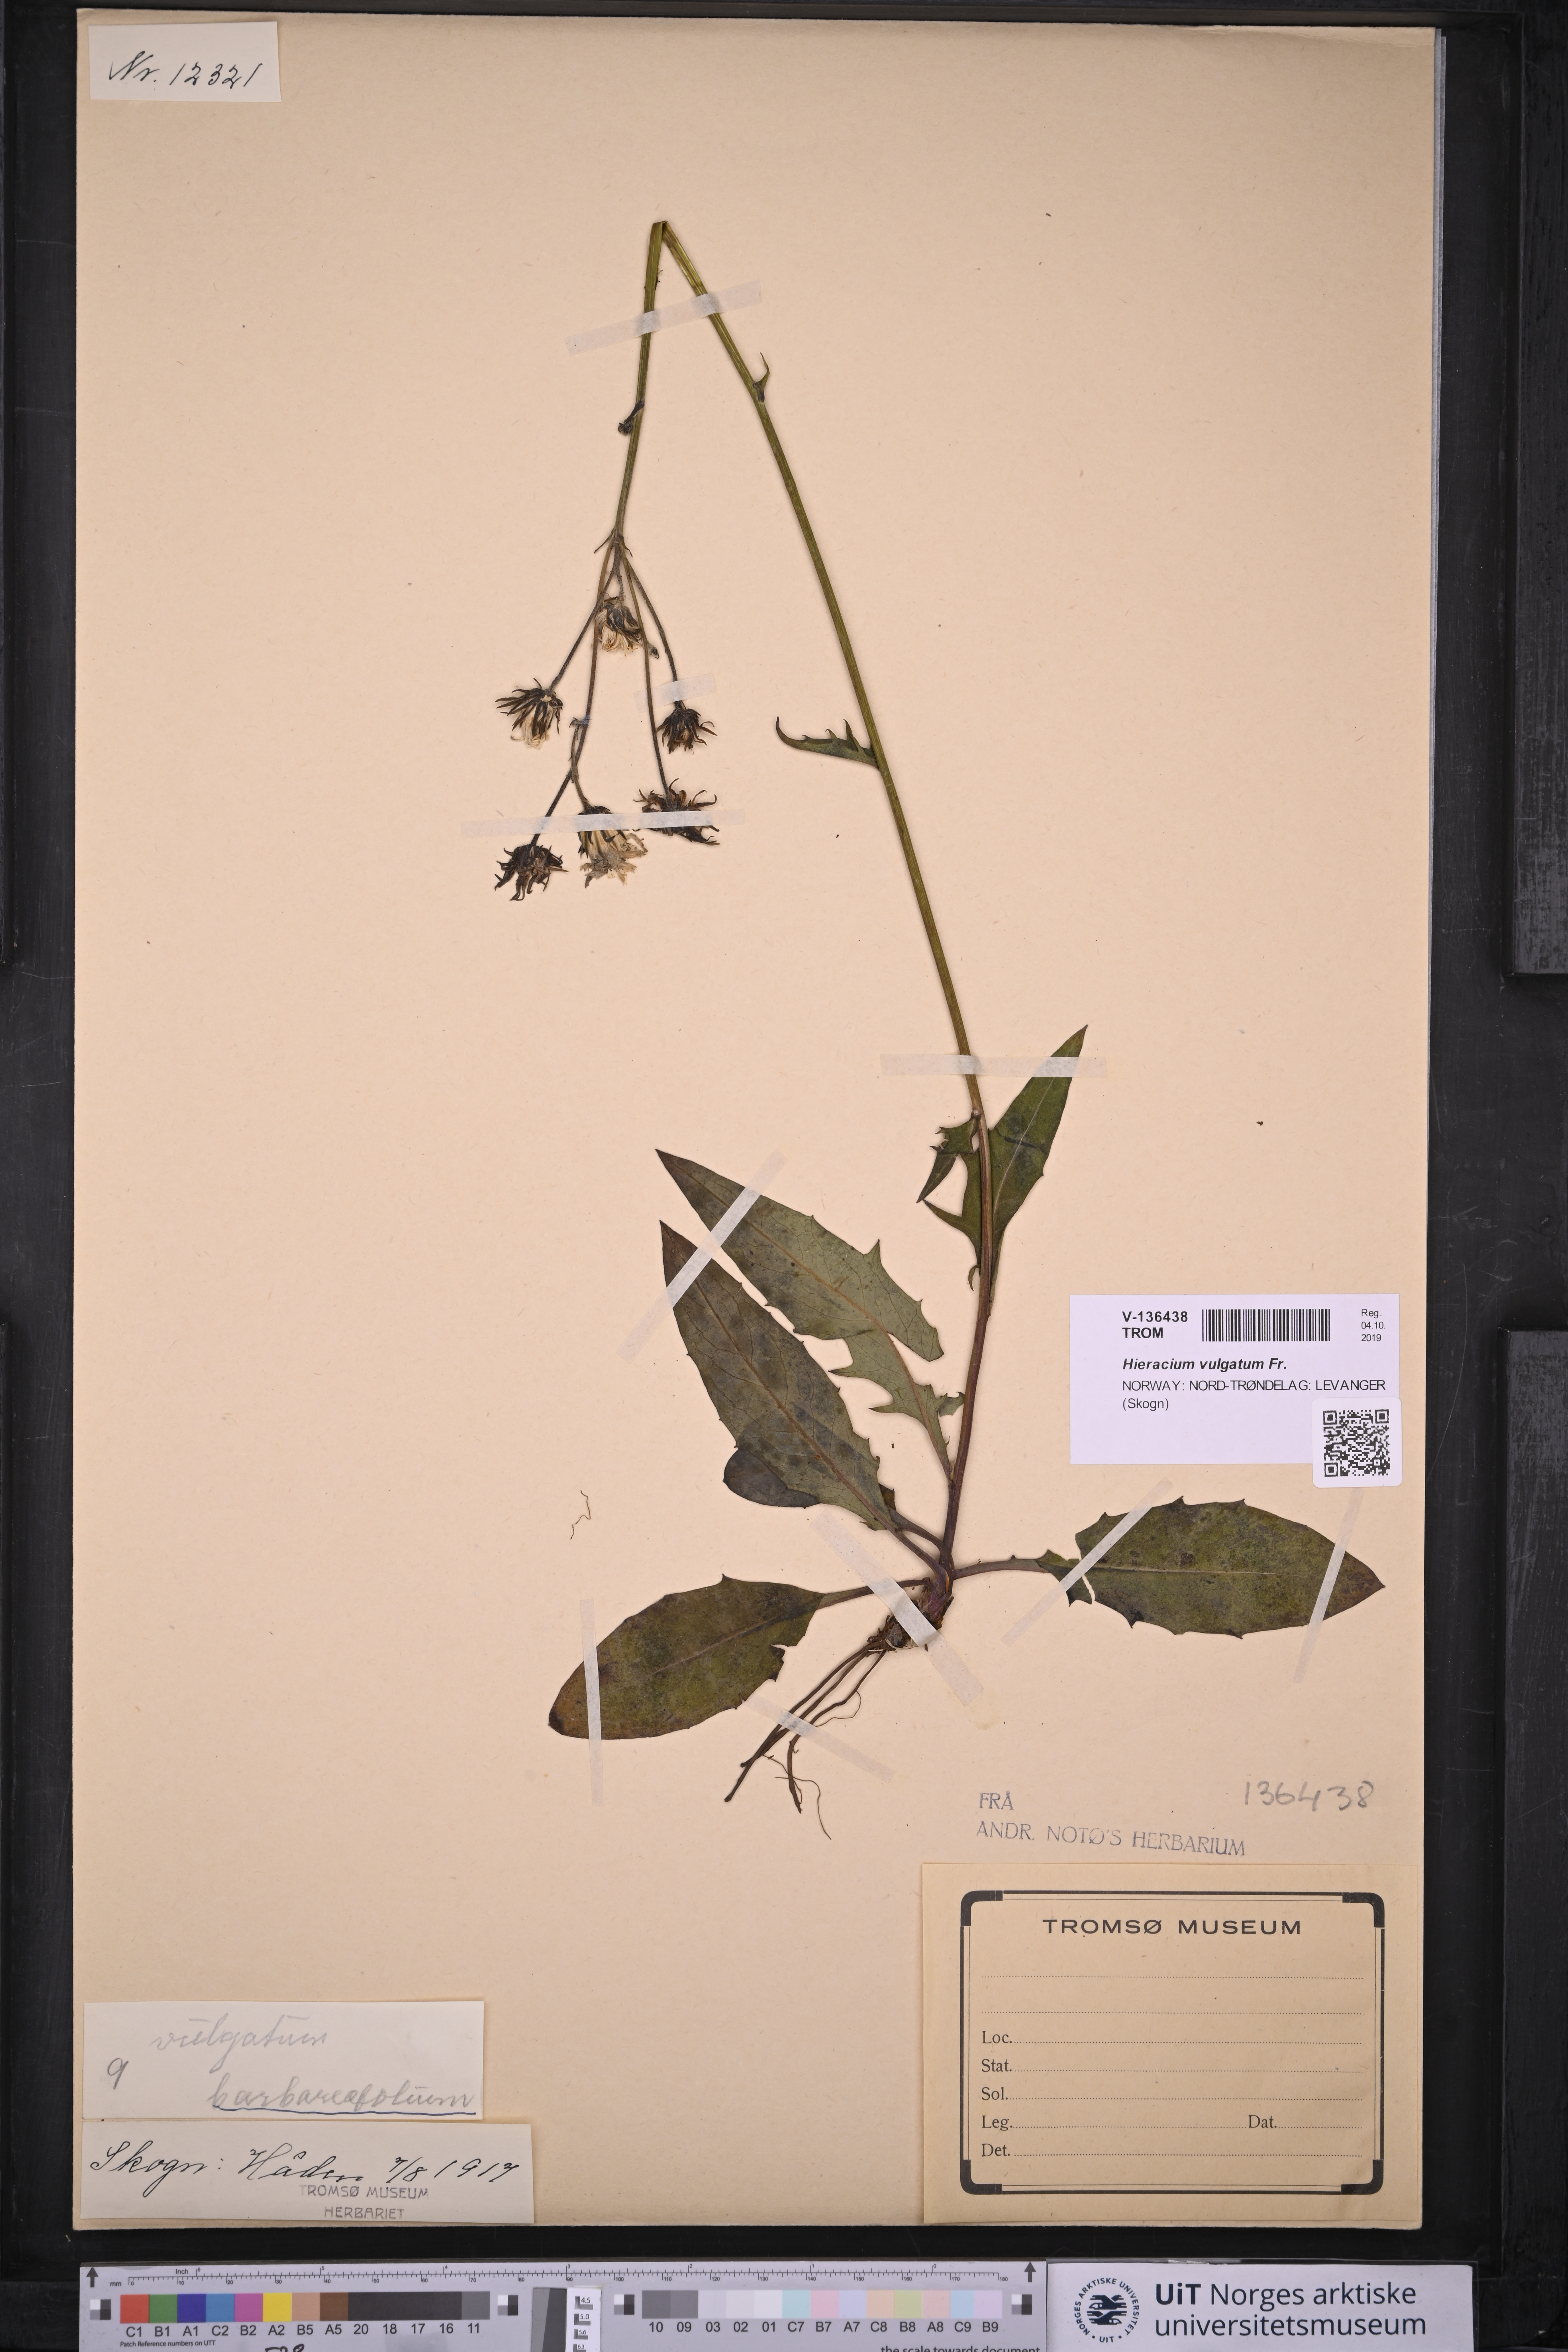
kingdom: Plantae
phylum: Tracheophyta
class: Magnoliopsida
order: Asterales
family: Asteraceae
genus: Hieracium
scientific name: Hieracium lachenalii
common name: Common hawkweed
